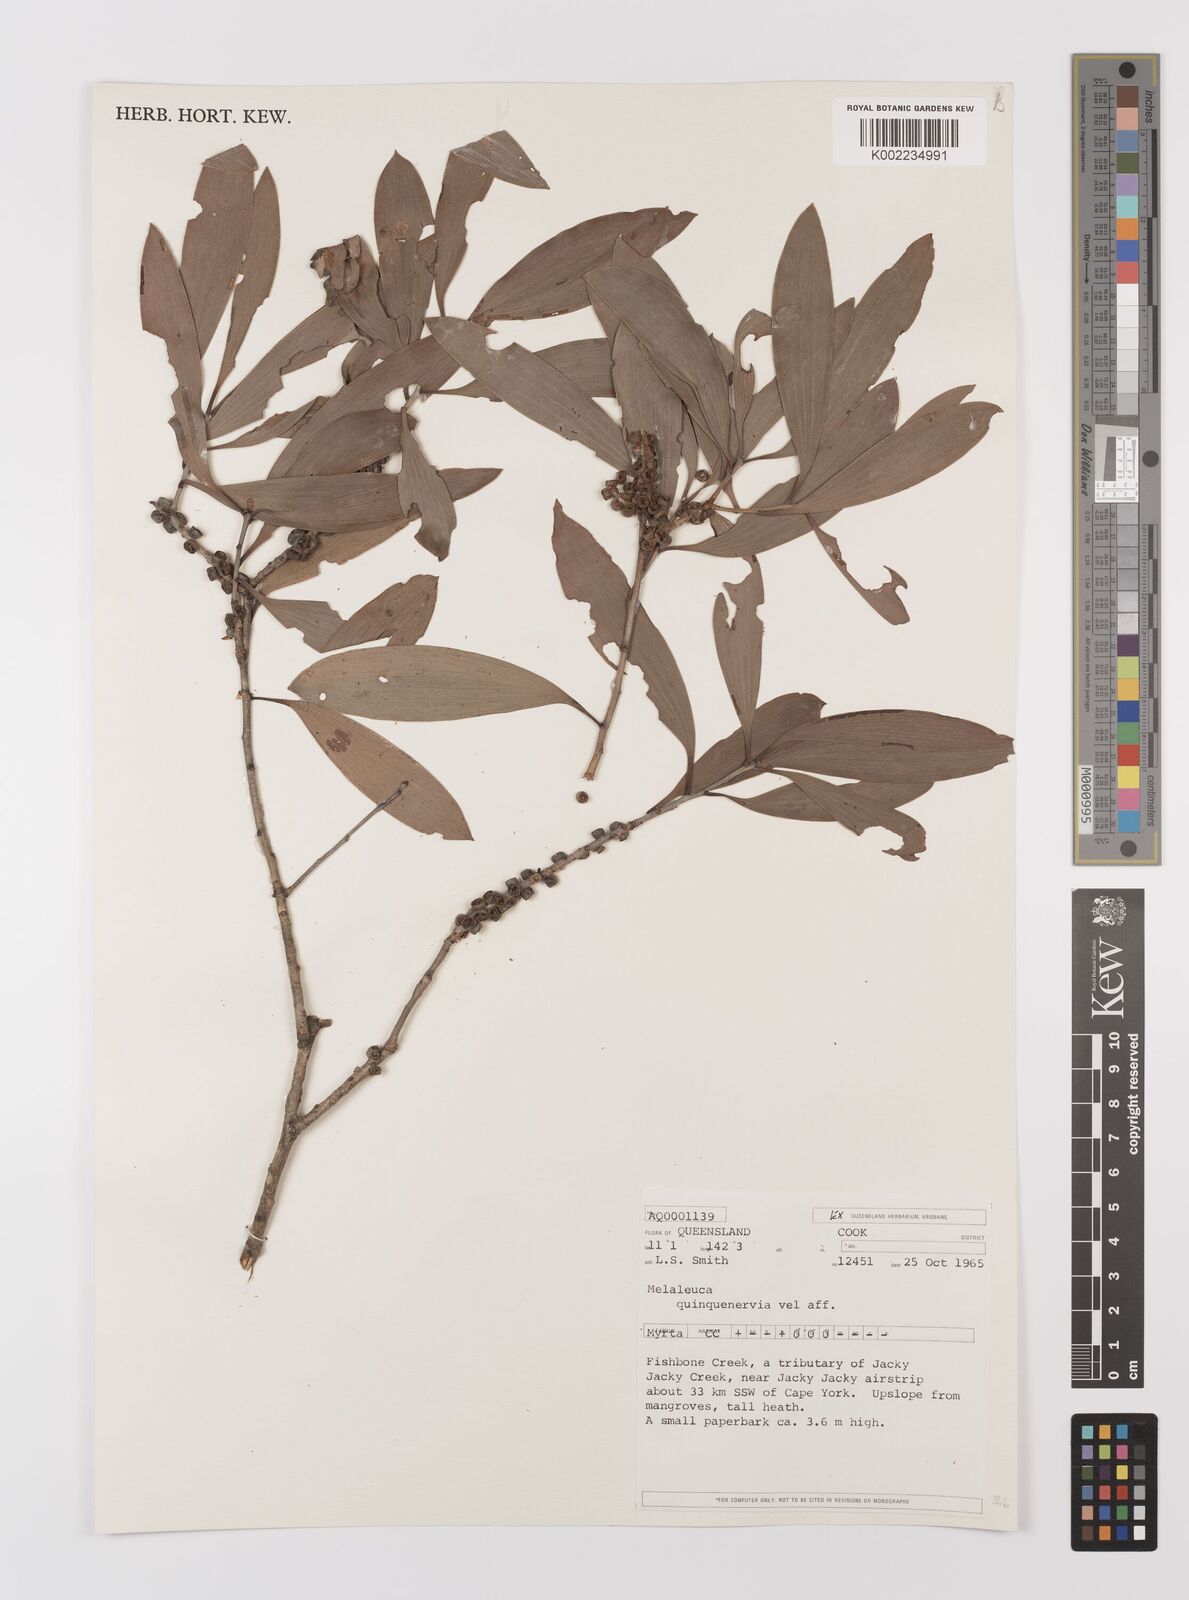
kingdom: Plantae
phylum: Tracheophyta
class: Magnoliopsida
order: Myrtales
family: Myrtaceae
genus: Melaleuca
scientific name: Melaleuca quinquenervia
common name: Punktree
